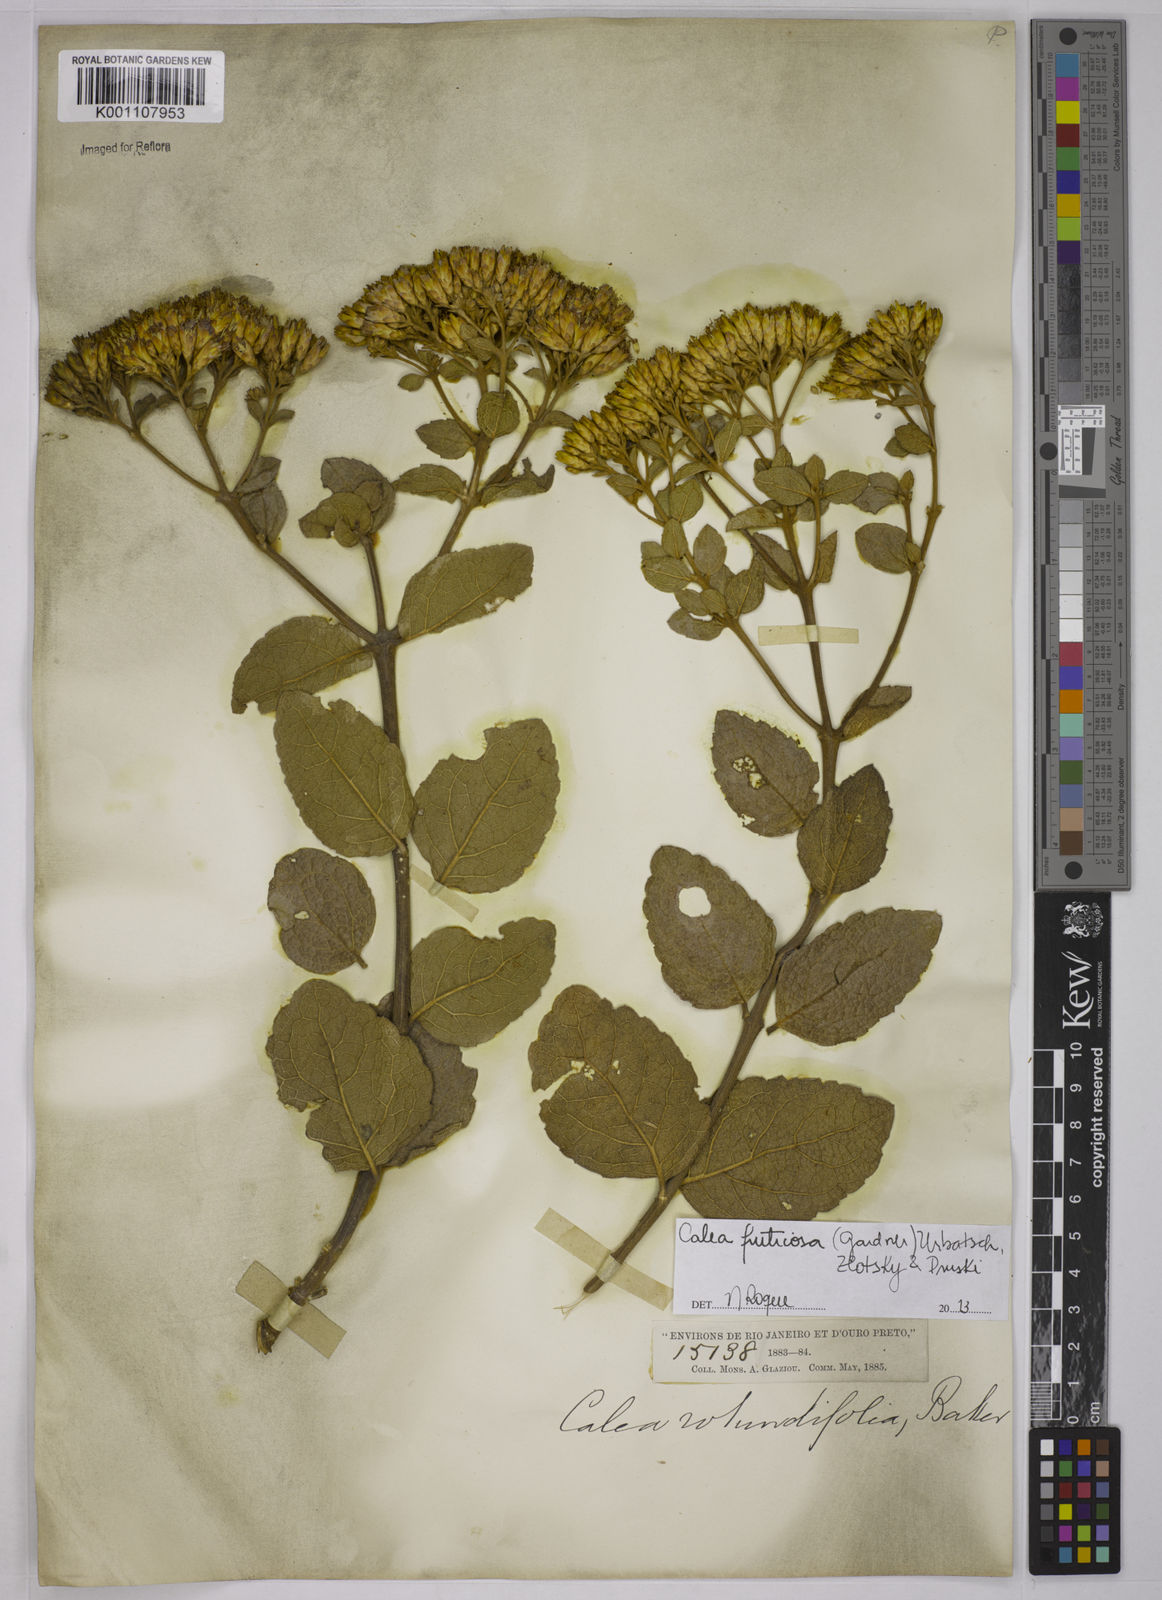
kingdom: Plantae
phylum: Tracheophyta
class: Magnoliopsida
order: Asterales
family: Asteraceae
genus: Calea
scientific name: Calea fruticosa
